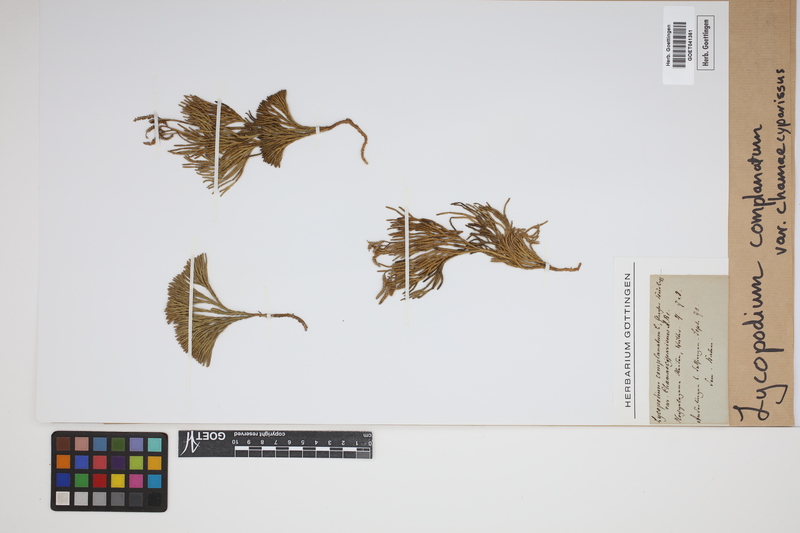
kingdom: Plantae
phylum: Tracheophyta
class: Lycopodiopsida
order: Lycopodiales
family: Lycopodiaceae
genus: Diphasiastrum
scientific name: Diphasiastrum tristachyum
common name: Blue ground-cedar
